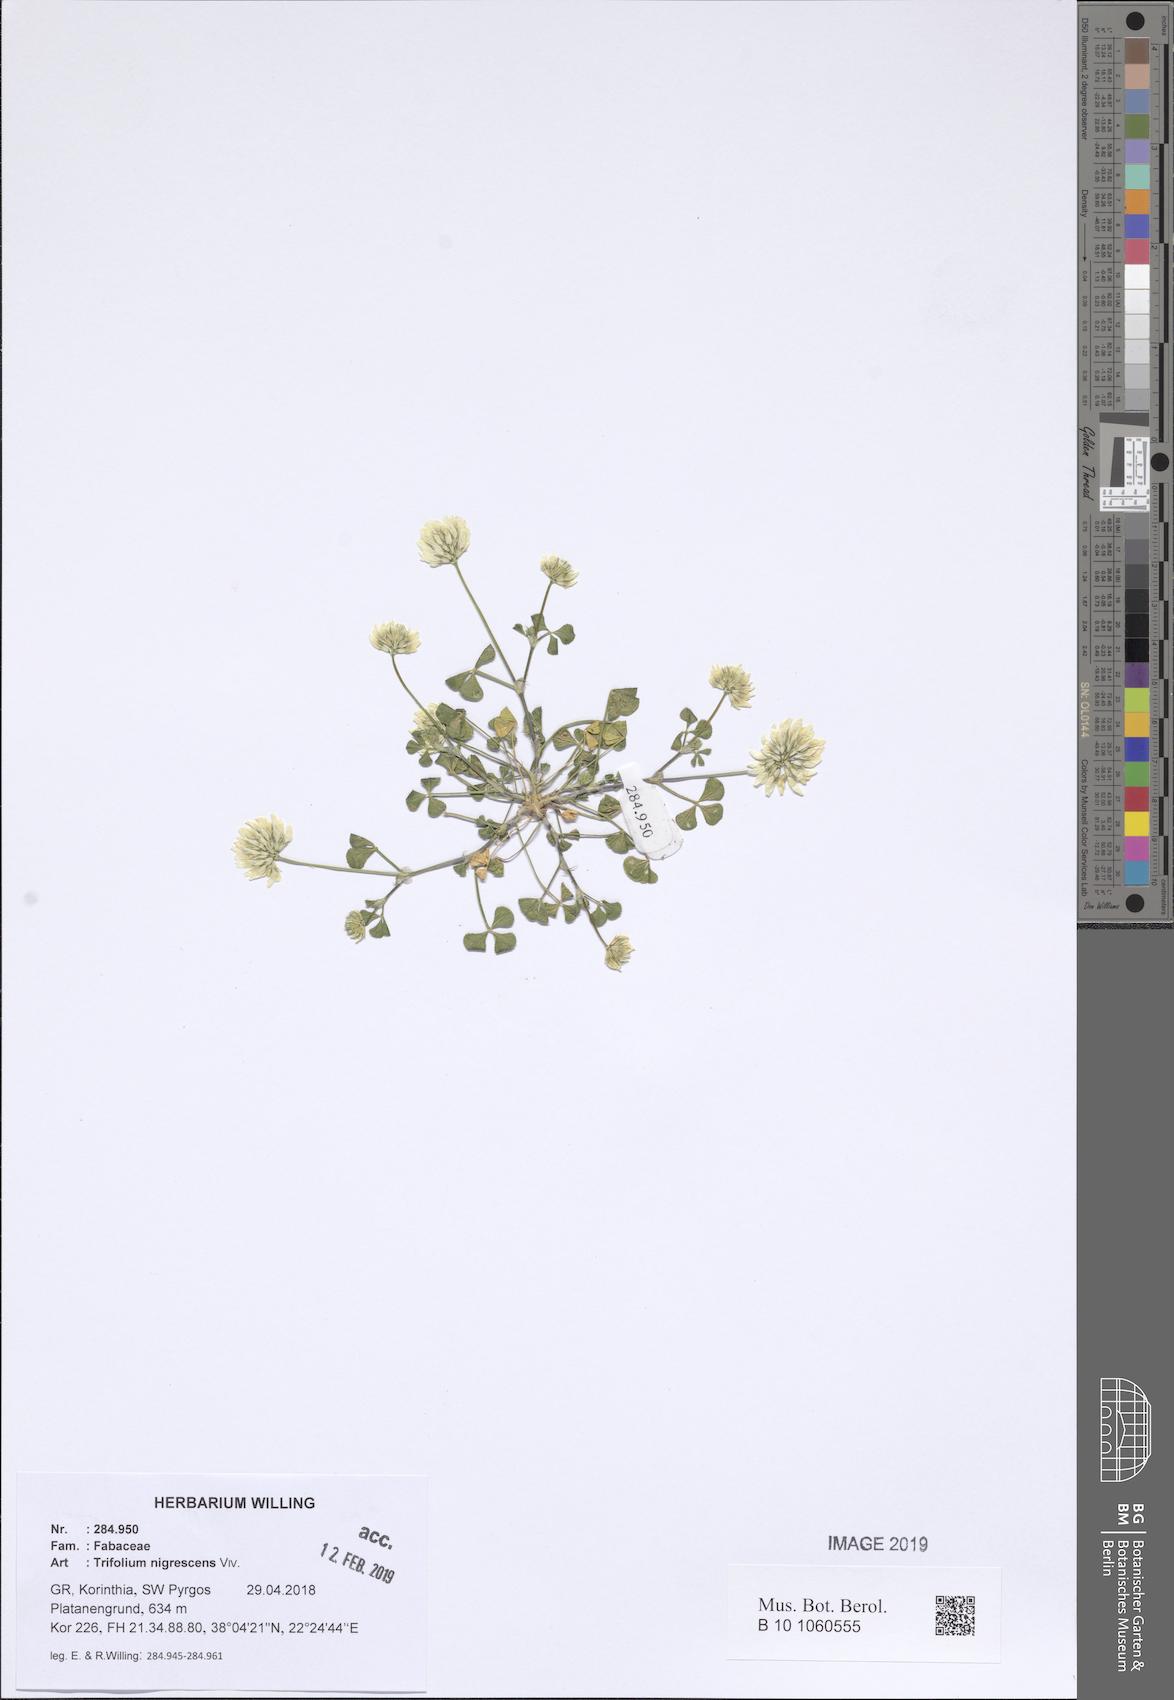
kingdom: Plantae
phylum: Tracheophyta
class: Magnoliopsida
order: Fabales
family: Fabaceae
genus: Trifolium
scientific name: Trifolium nigrescens
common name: Small white clover
